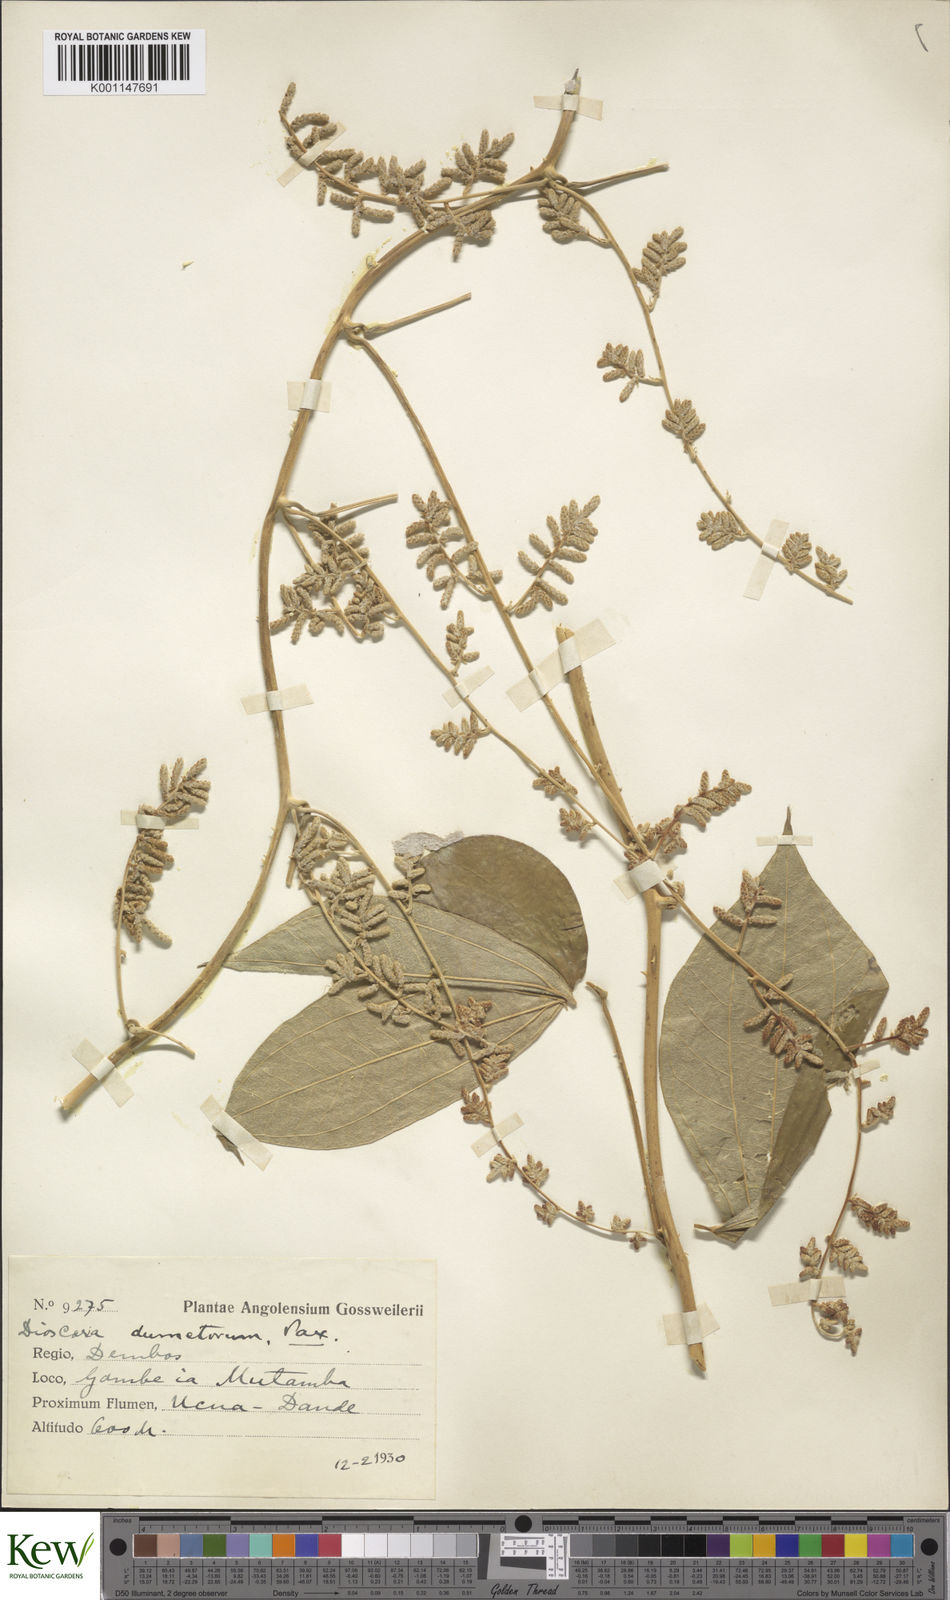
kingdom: Plantae
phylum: Tracheophyta
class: Liliopsida
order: Dioscoreales
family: Dioscoreaceae
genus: Dioscorea
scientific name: Dioscorea dumetorum
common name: African bitter yam
